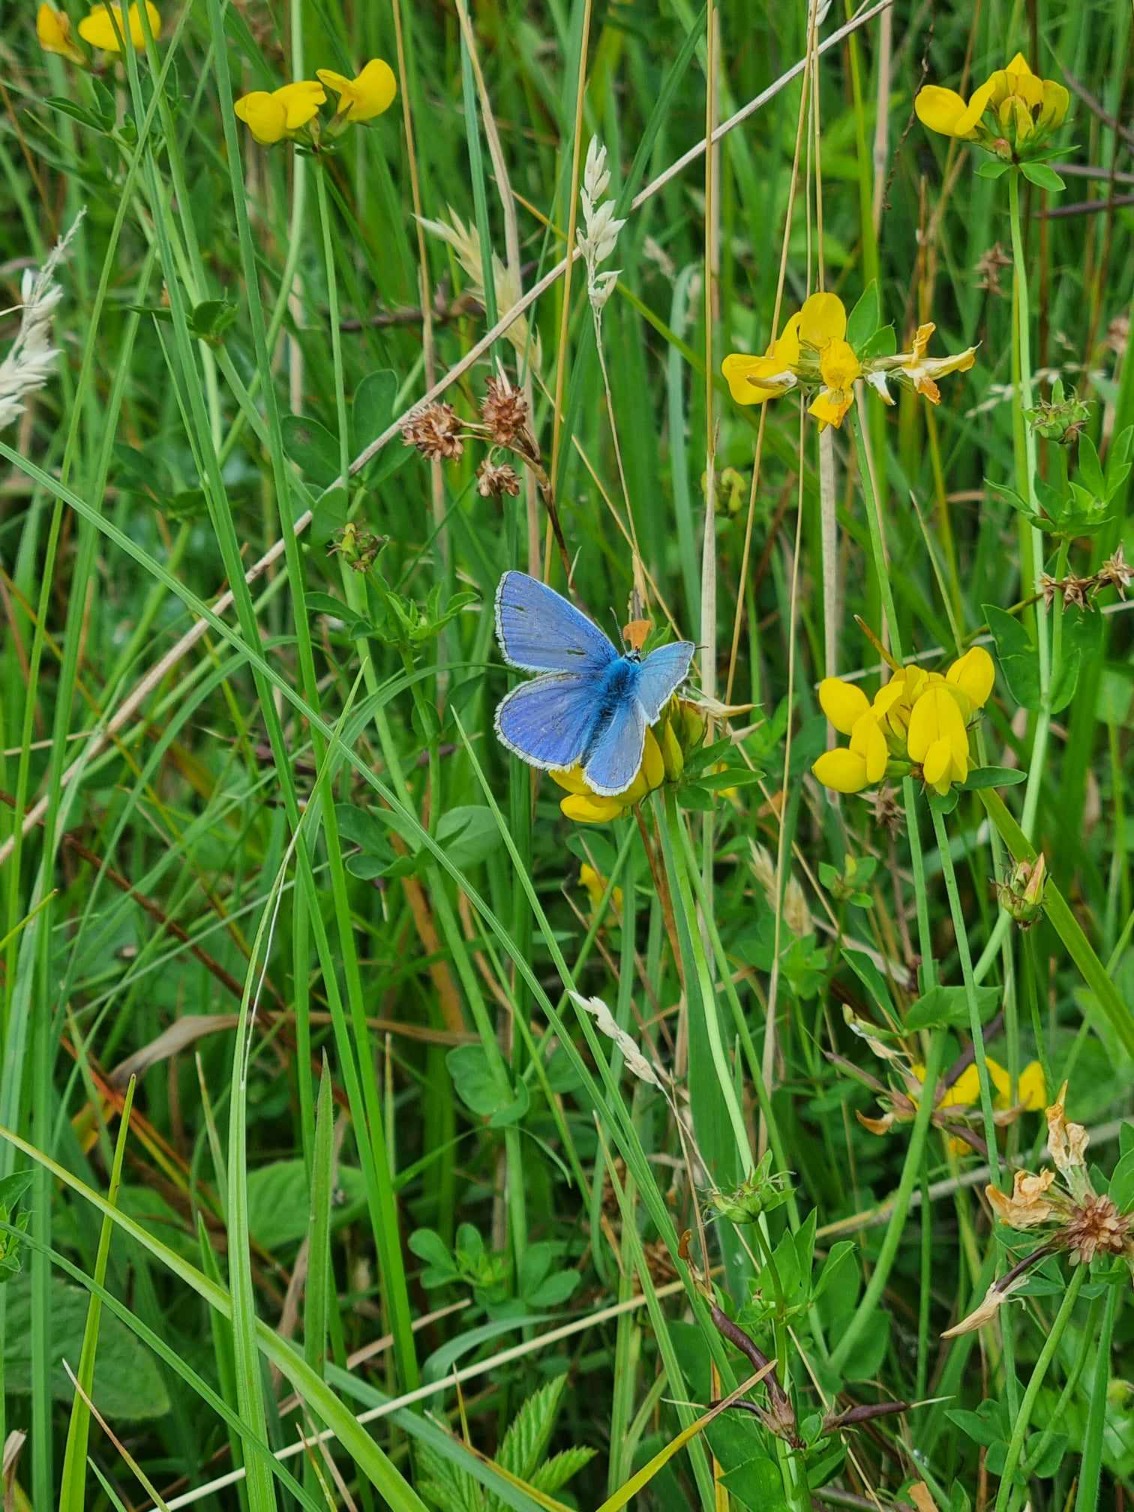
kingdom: Animalia
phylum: Arthropoda
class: Insecta
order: Lepidoptera
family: Lycaenidae
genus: Polyommatus
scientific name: Polyommatus icarus
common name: Almindelig blåfugl
